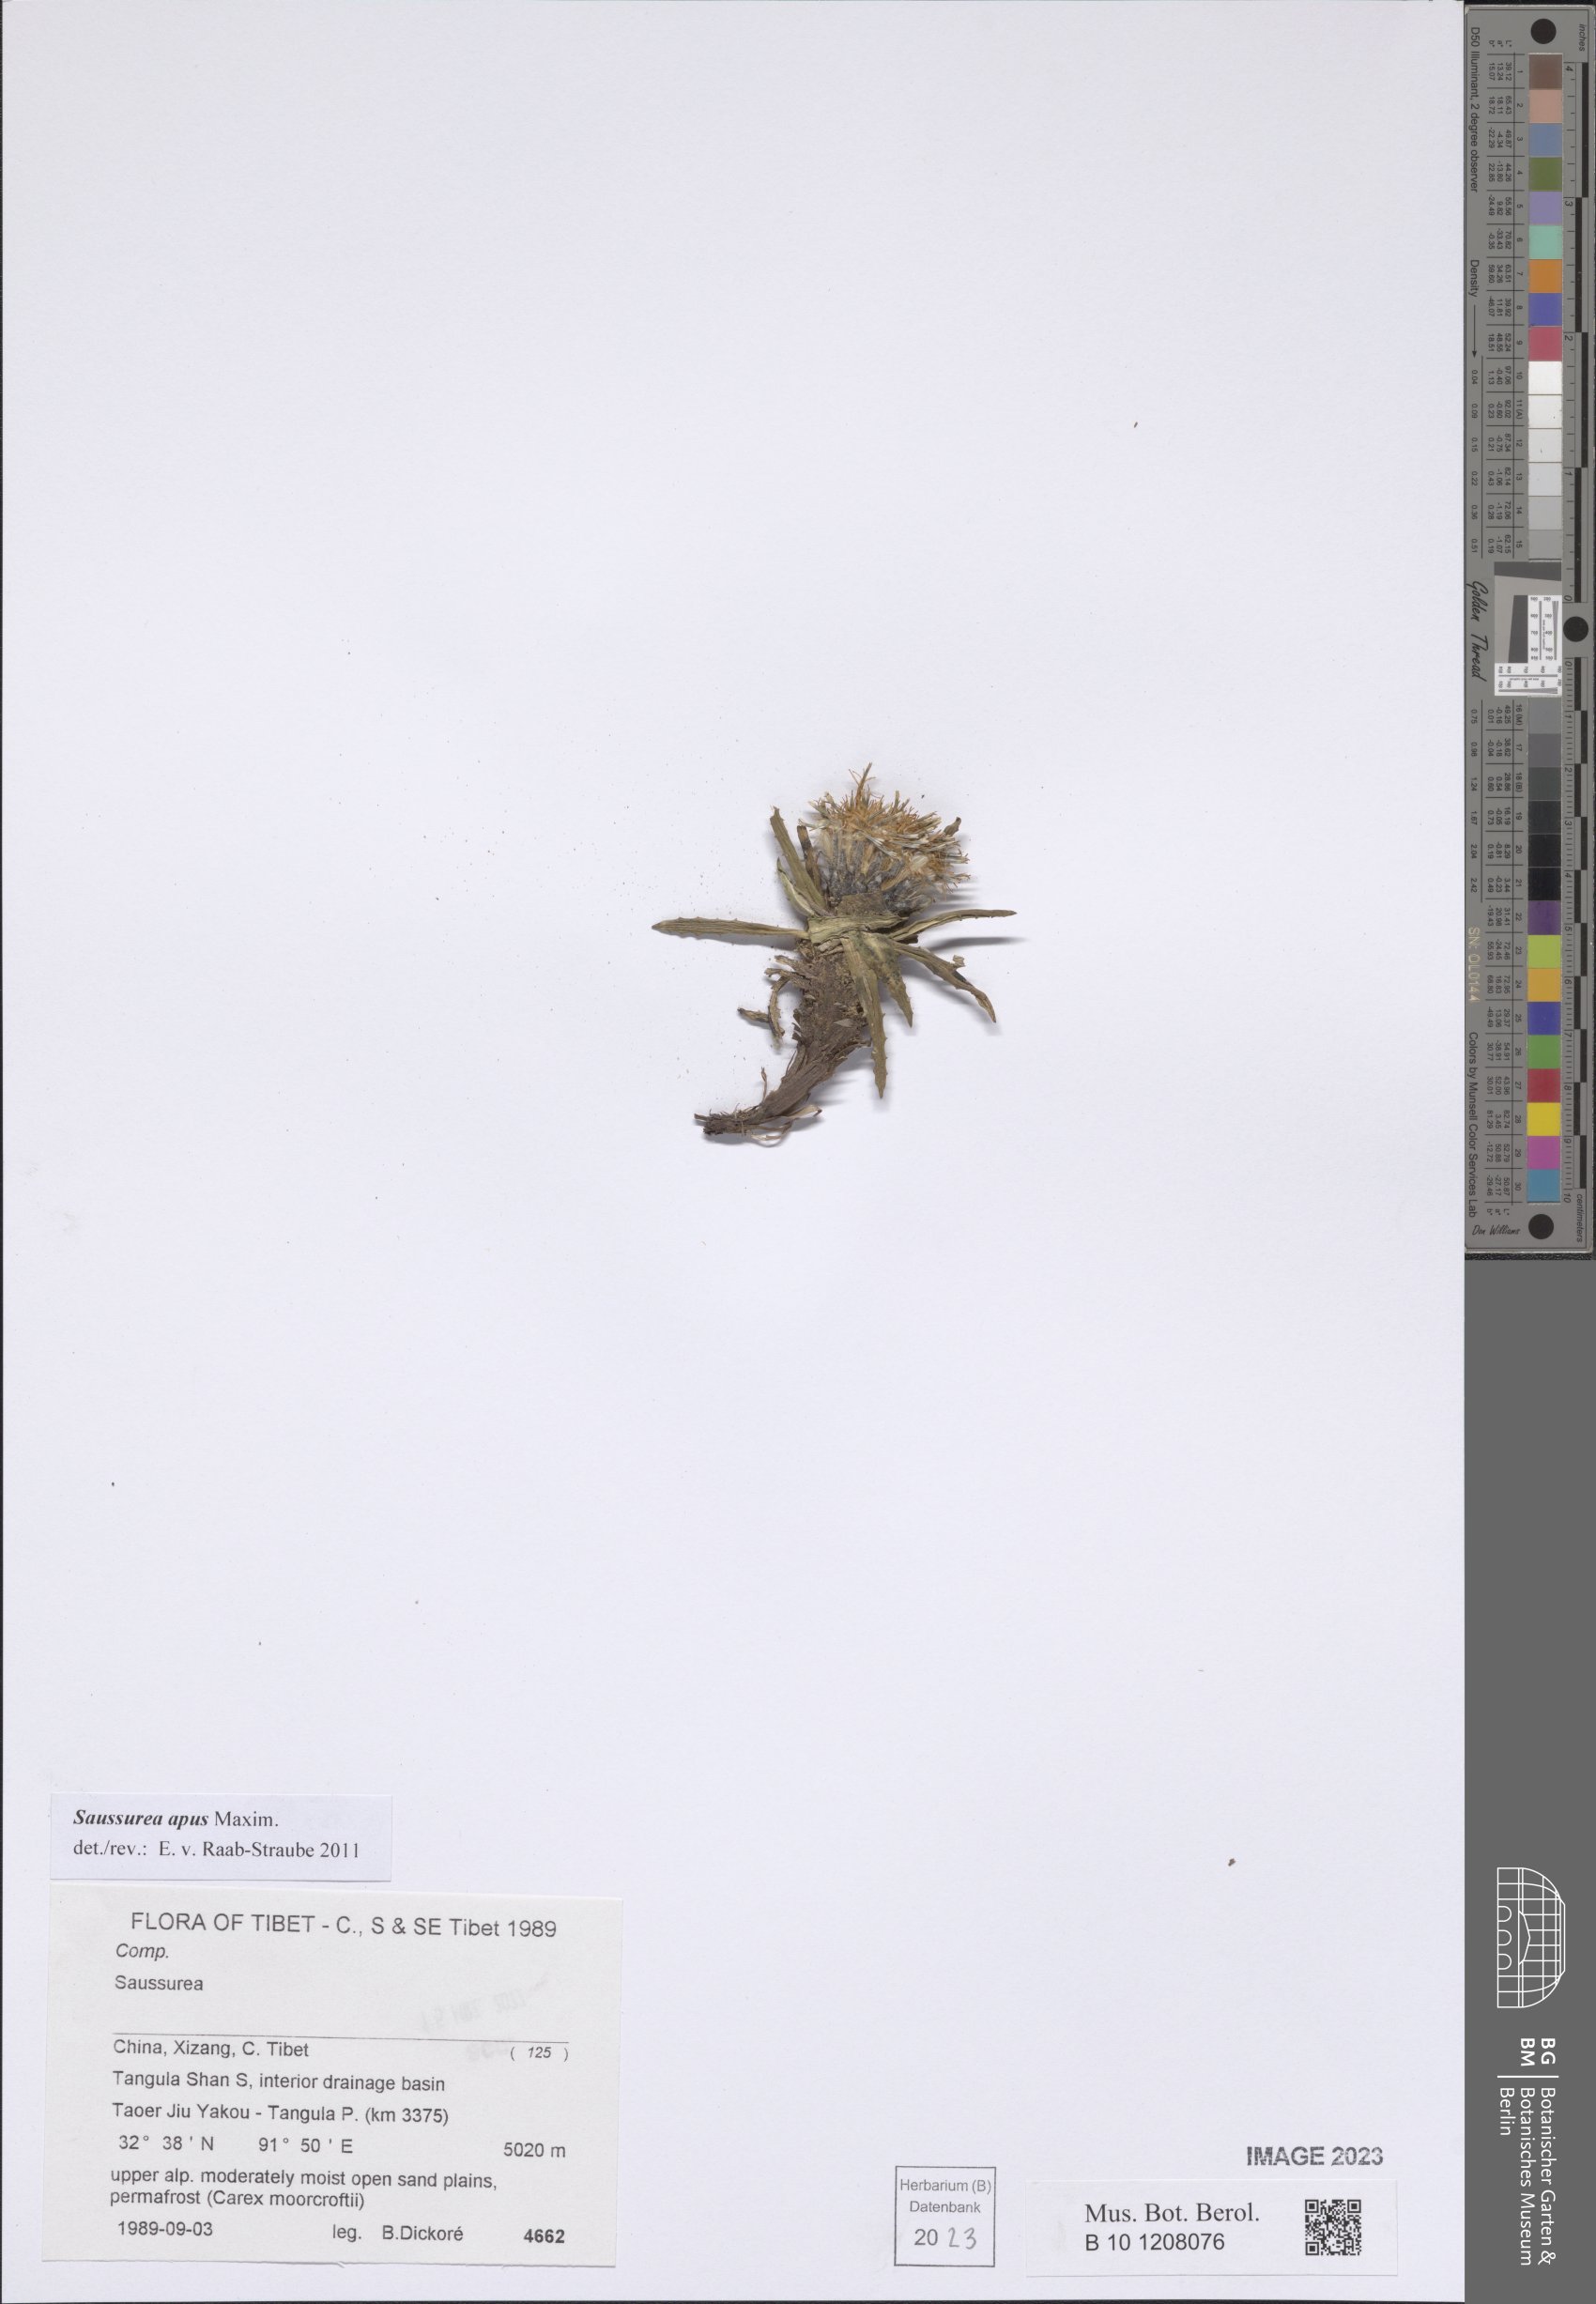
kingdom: Plantae
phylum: Tracheophyta
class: Magnoliopsida
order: Asterales
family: Asteraceae
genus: Saussurea
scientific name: Saussurea apus
